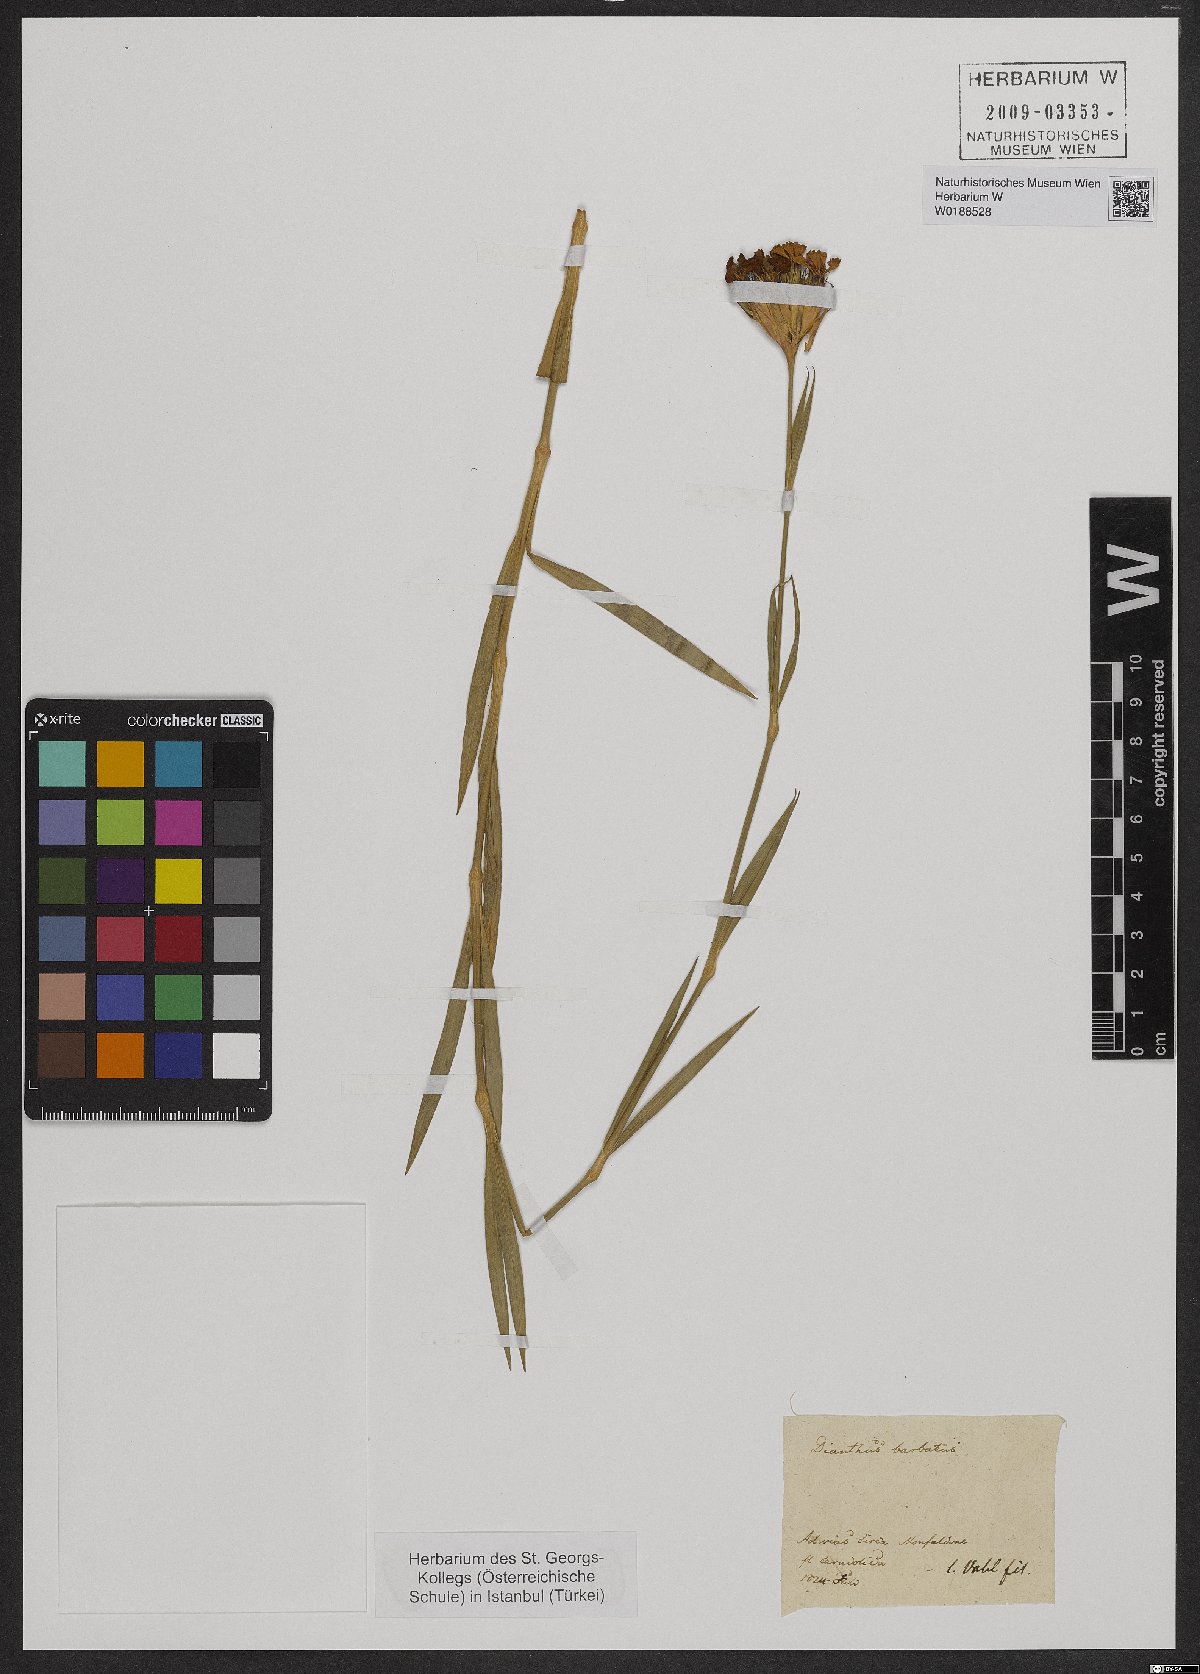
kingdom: Plantae
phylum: Tracheophyta
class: Magnoliopsida
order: Caryophyllales
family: Caryophyllaceae
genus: Dianthus
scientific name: Dianthus barbatus
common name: Sweet-william
